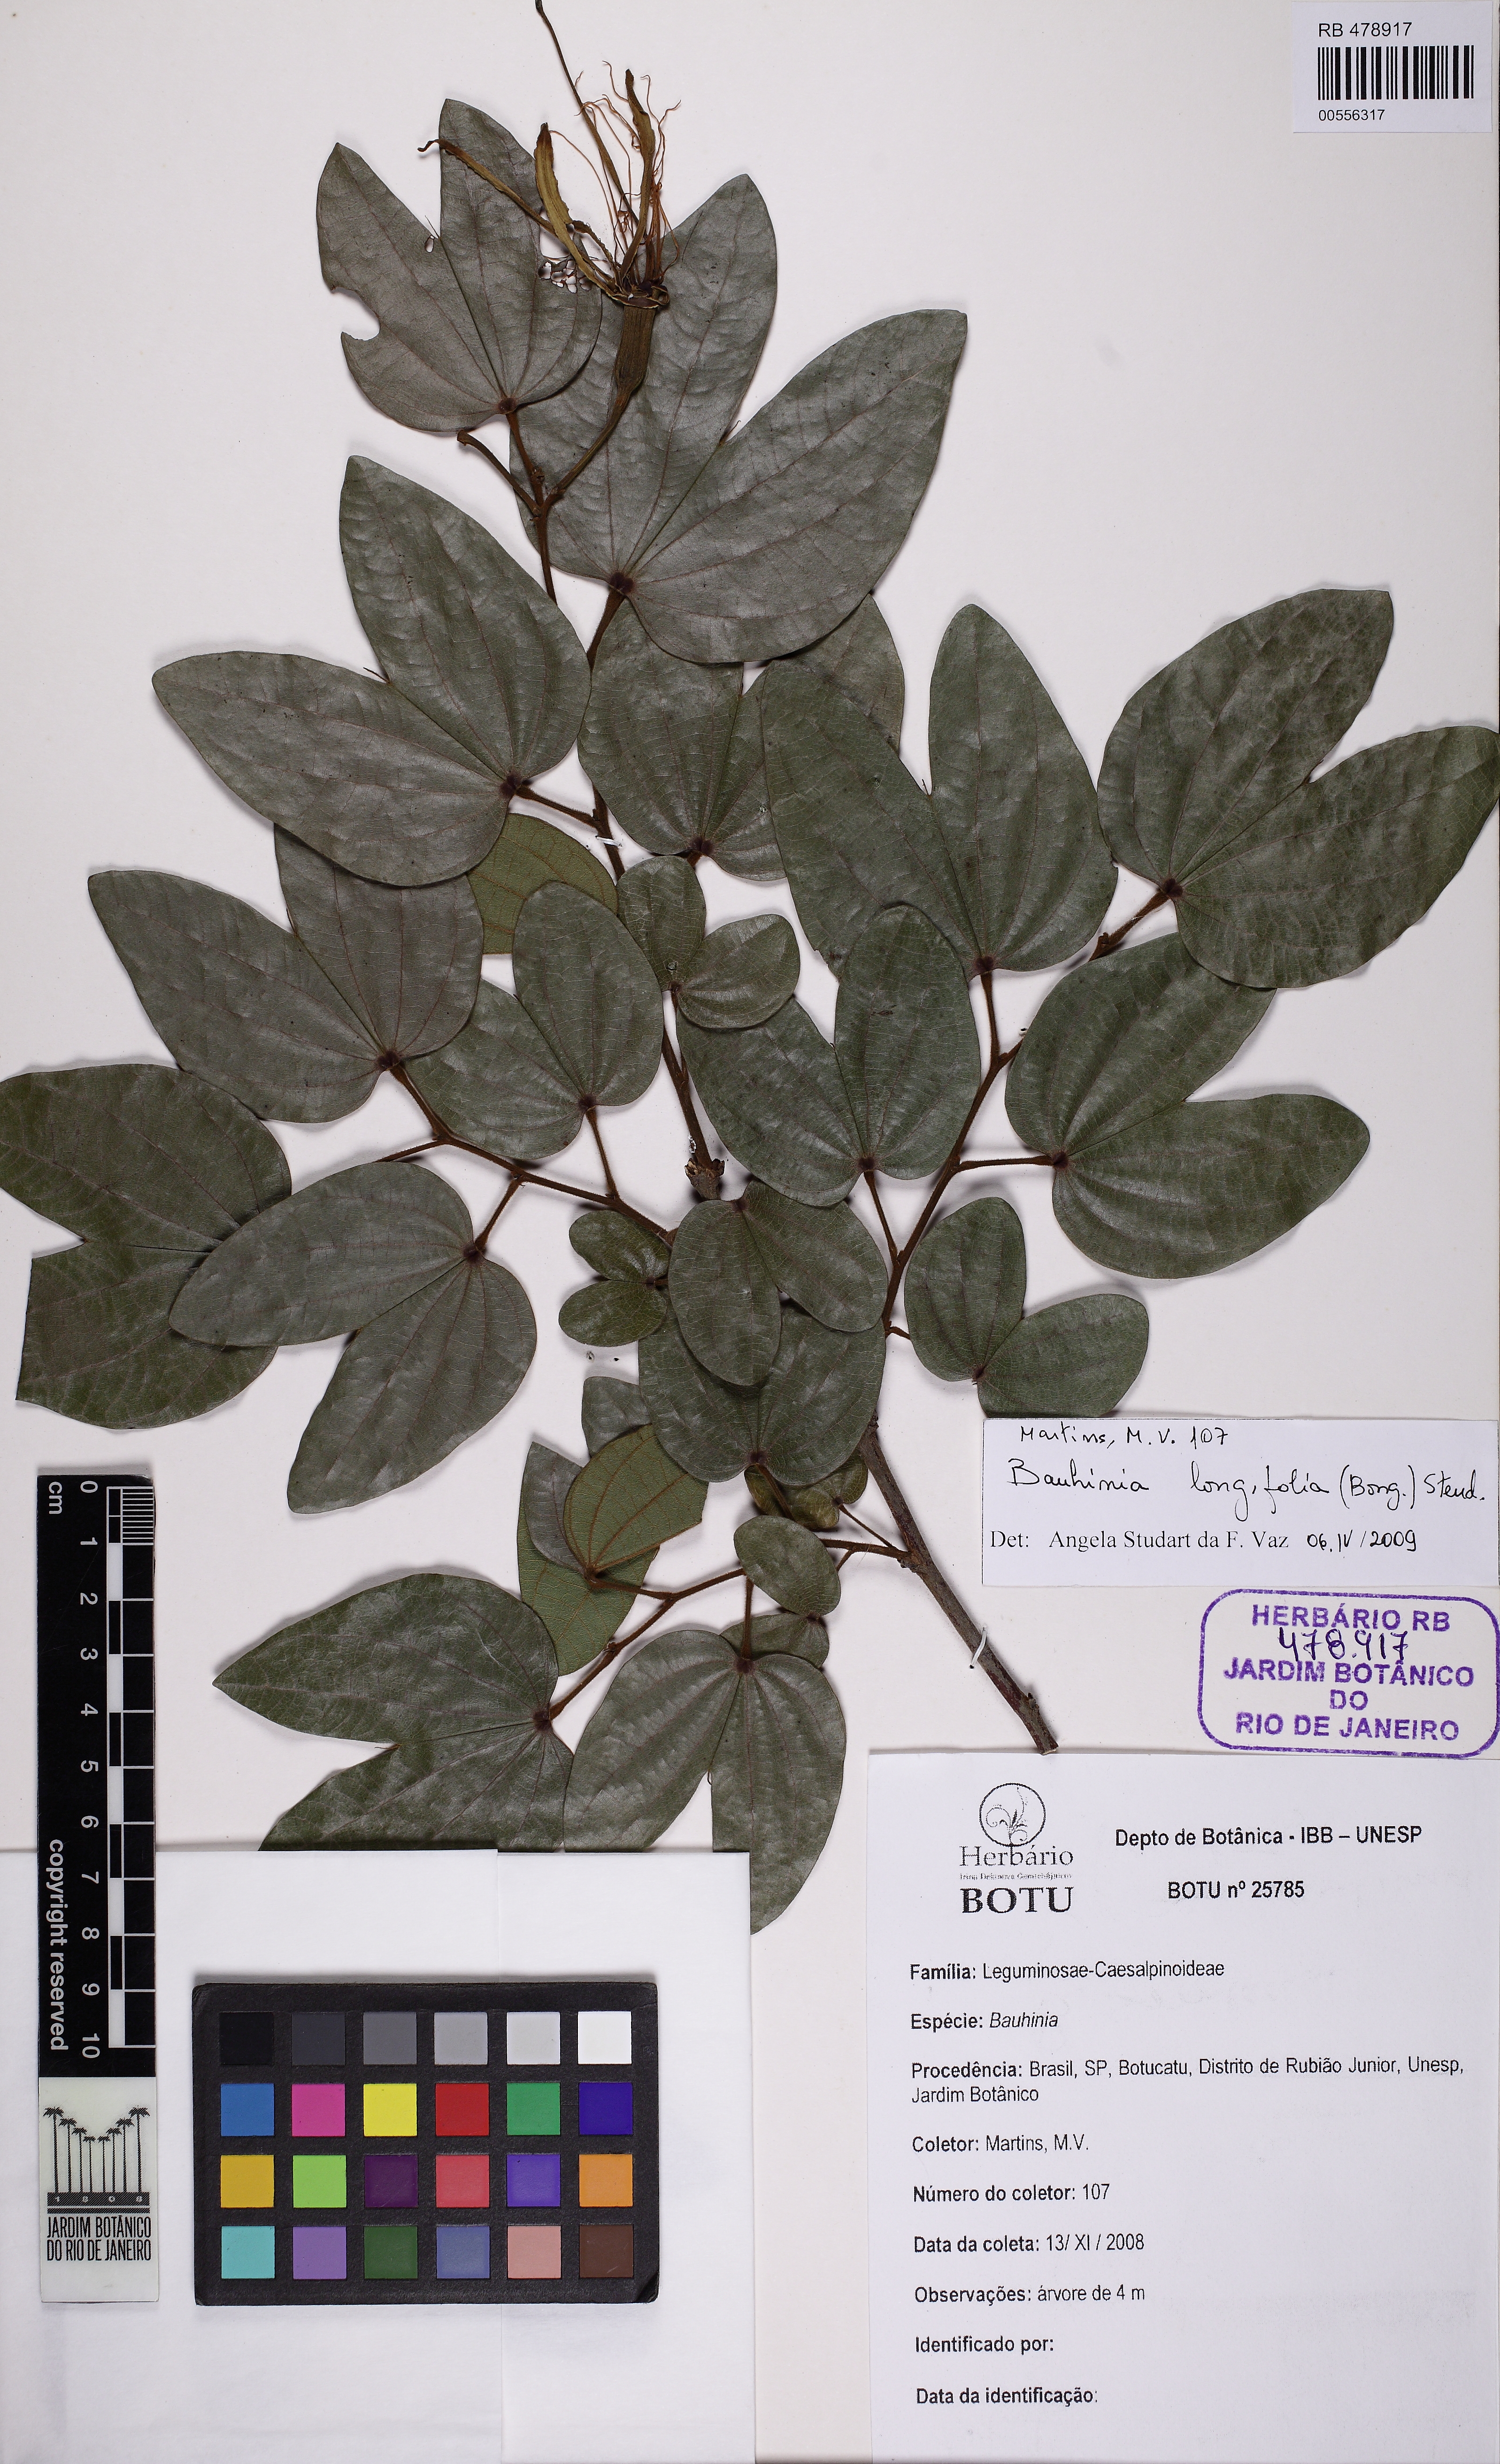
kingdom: Plantae
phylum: Tracheophyta
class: Magnoliopsida
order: Fabales
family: Fabaceae
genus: Bauhinia
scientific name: Bauhinia holophylla
